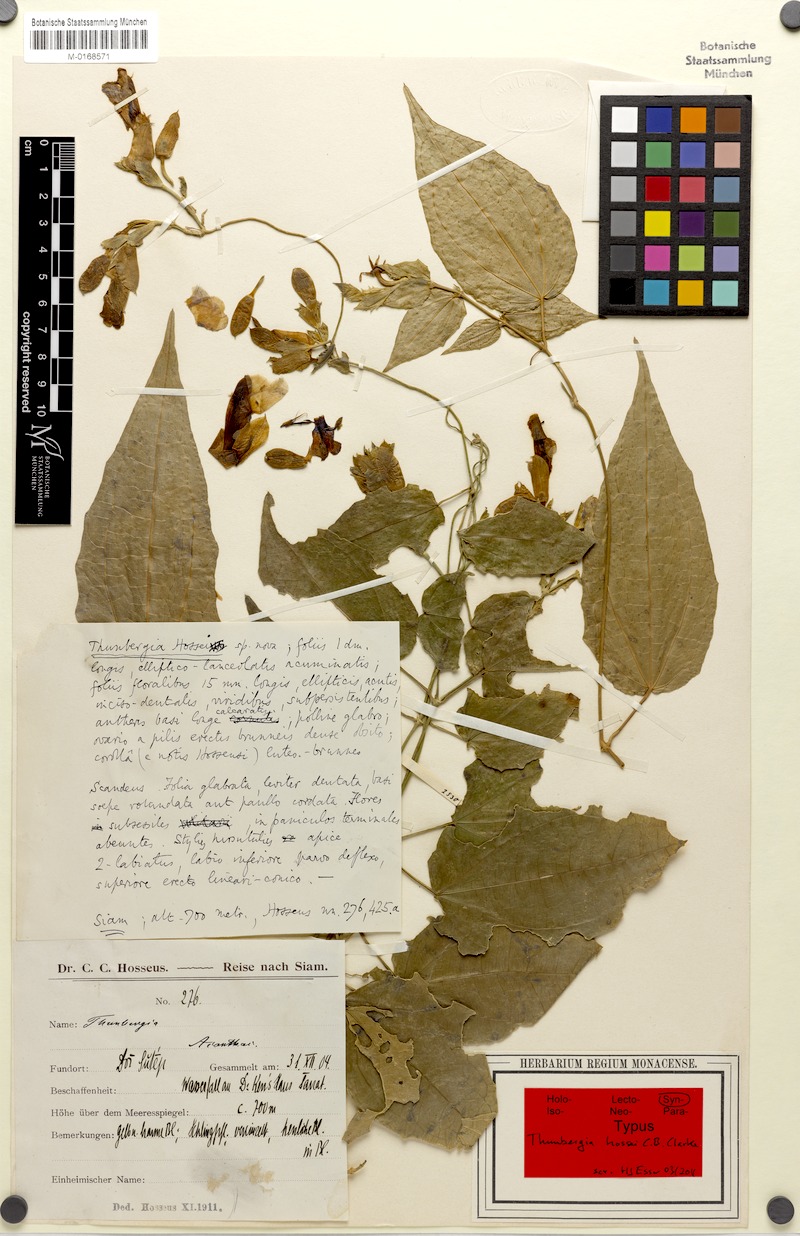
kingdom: Plantae
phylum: Tracheophyta
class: Magnoliopsida
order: Lamiales
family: Acanthaceae
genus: Thunbergia
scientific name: Thunbergia hossei
